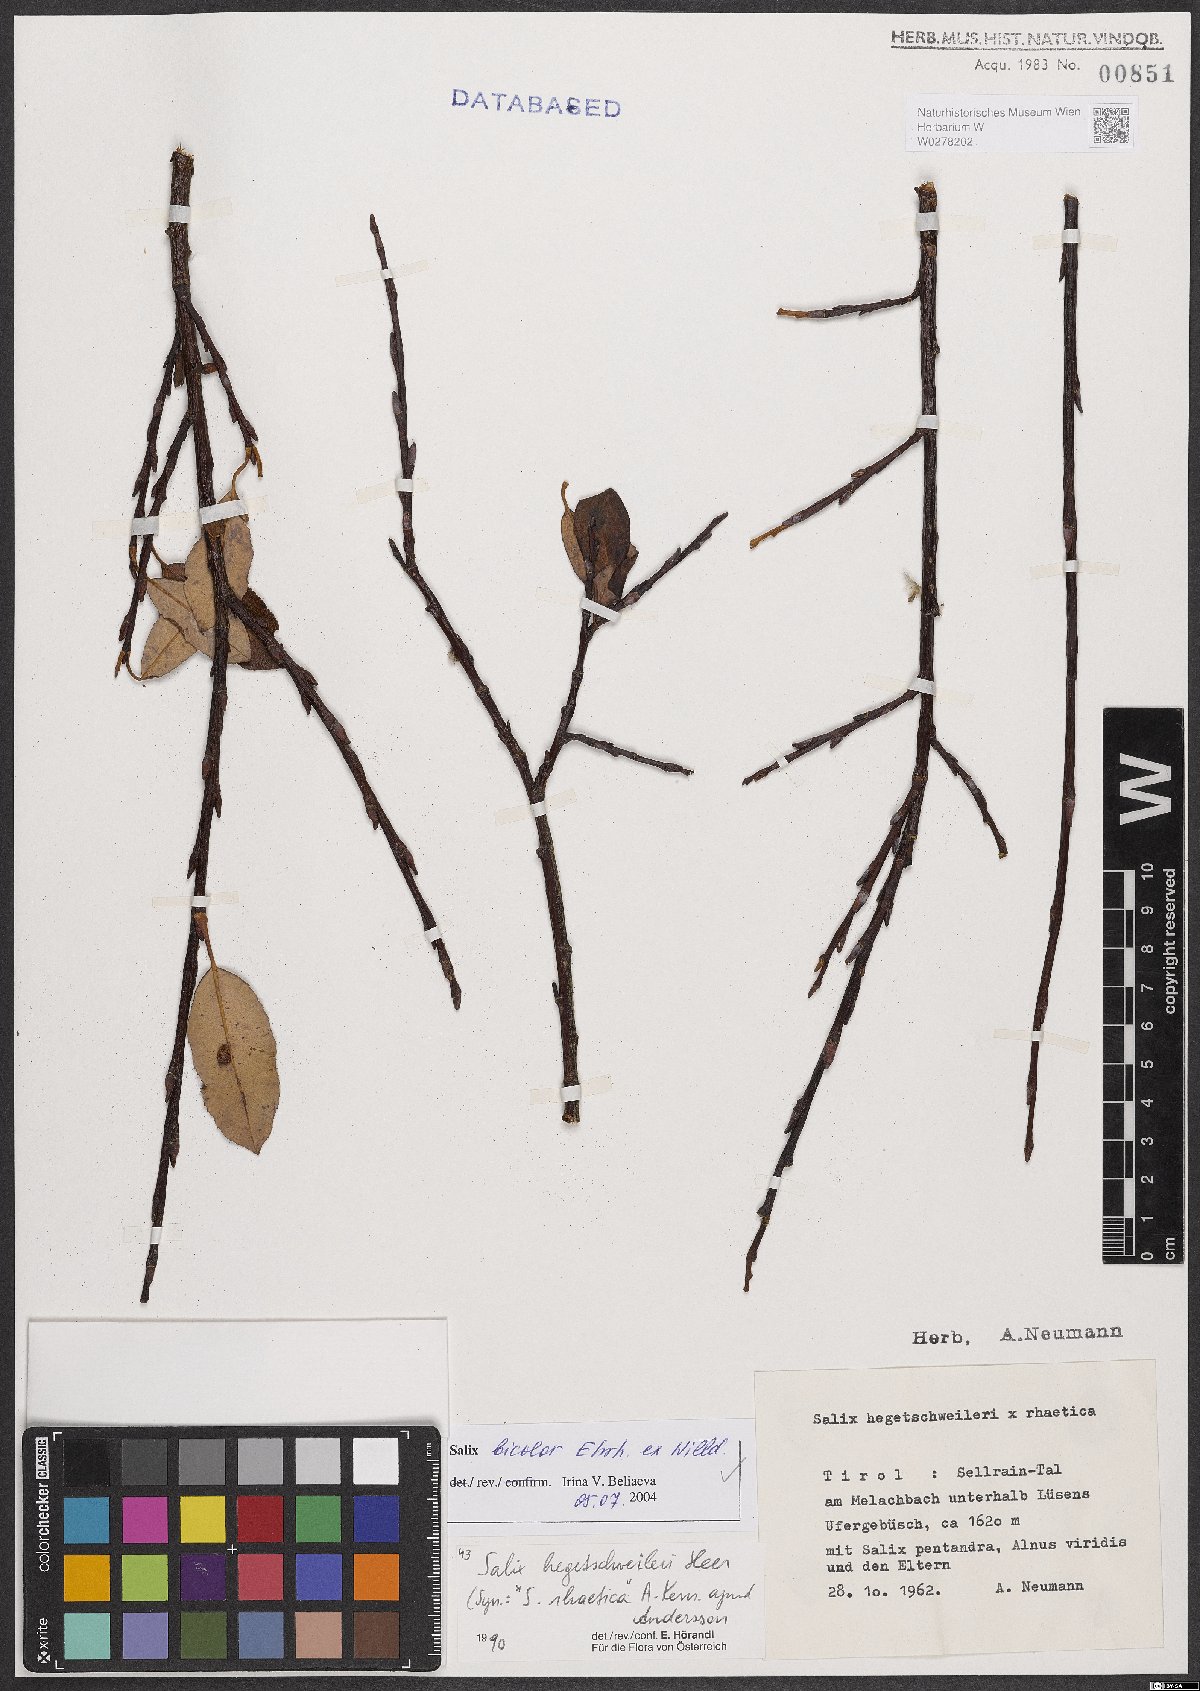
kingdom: Plantae
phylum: Tracheophyta
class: Magnoliopsida
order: Malpighiales
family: Salicaceae
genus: Salix
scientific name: Salix bicolor
